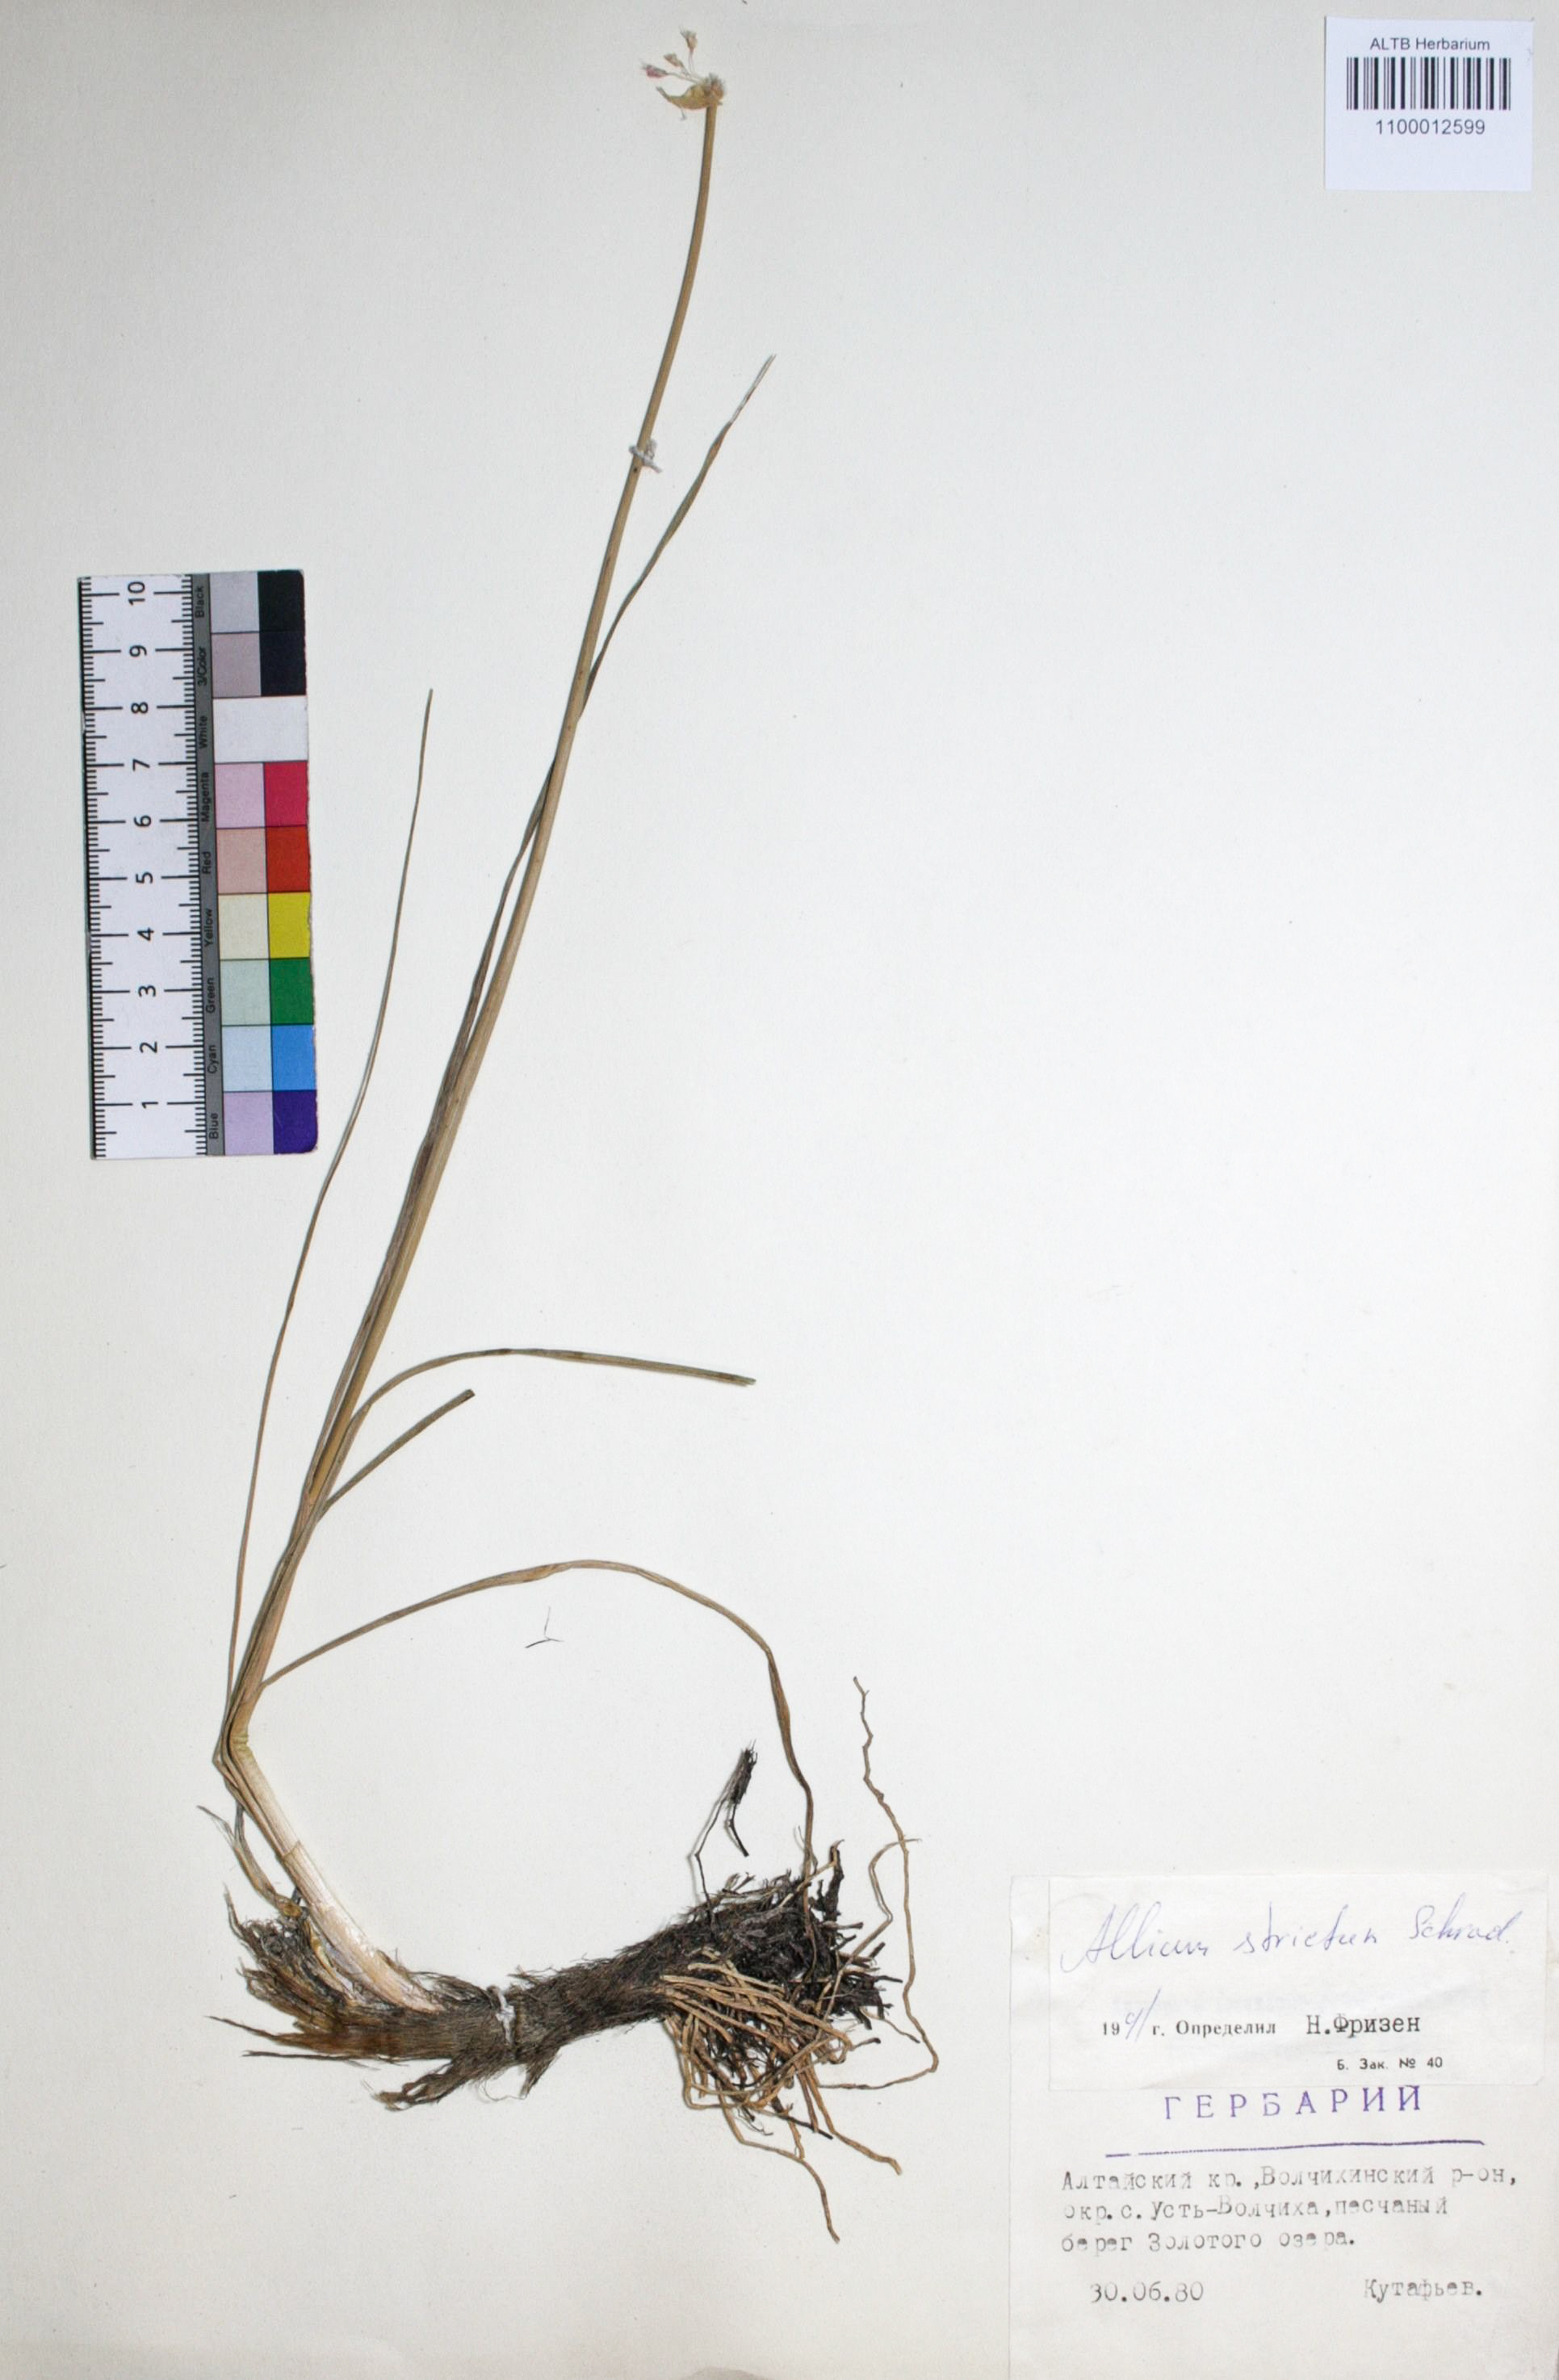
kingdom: Plantae
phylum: Tracheophyta
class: Liliopsida
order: Asparagales
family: Amaryllidaceae
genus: Allium
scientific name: Allium strictum
